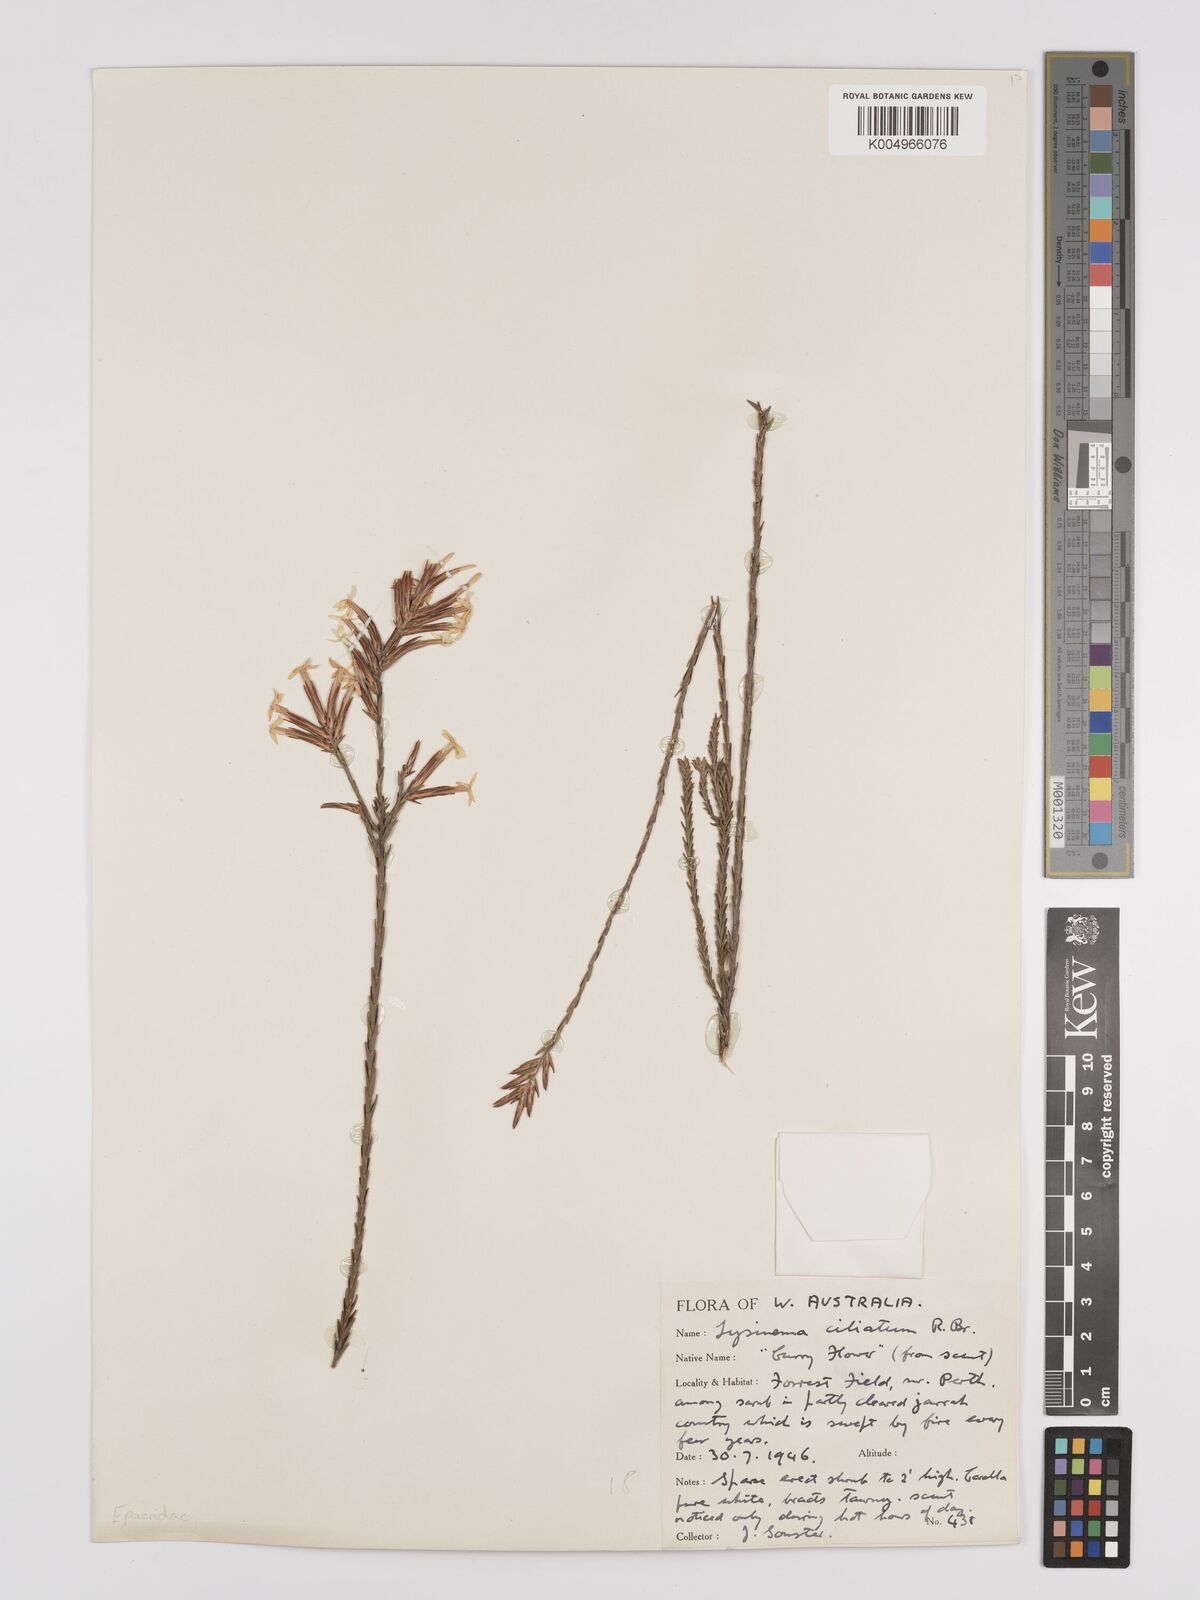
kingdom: Plantae
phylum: Tracheophyta
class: Magnoliopsida
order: Ericales
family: Ericaceae
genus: Lysinema
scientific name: Lysinema ciliatum
